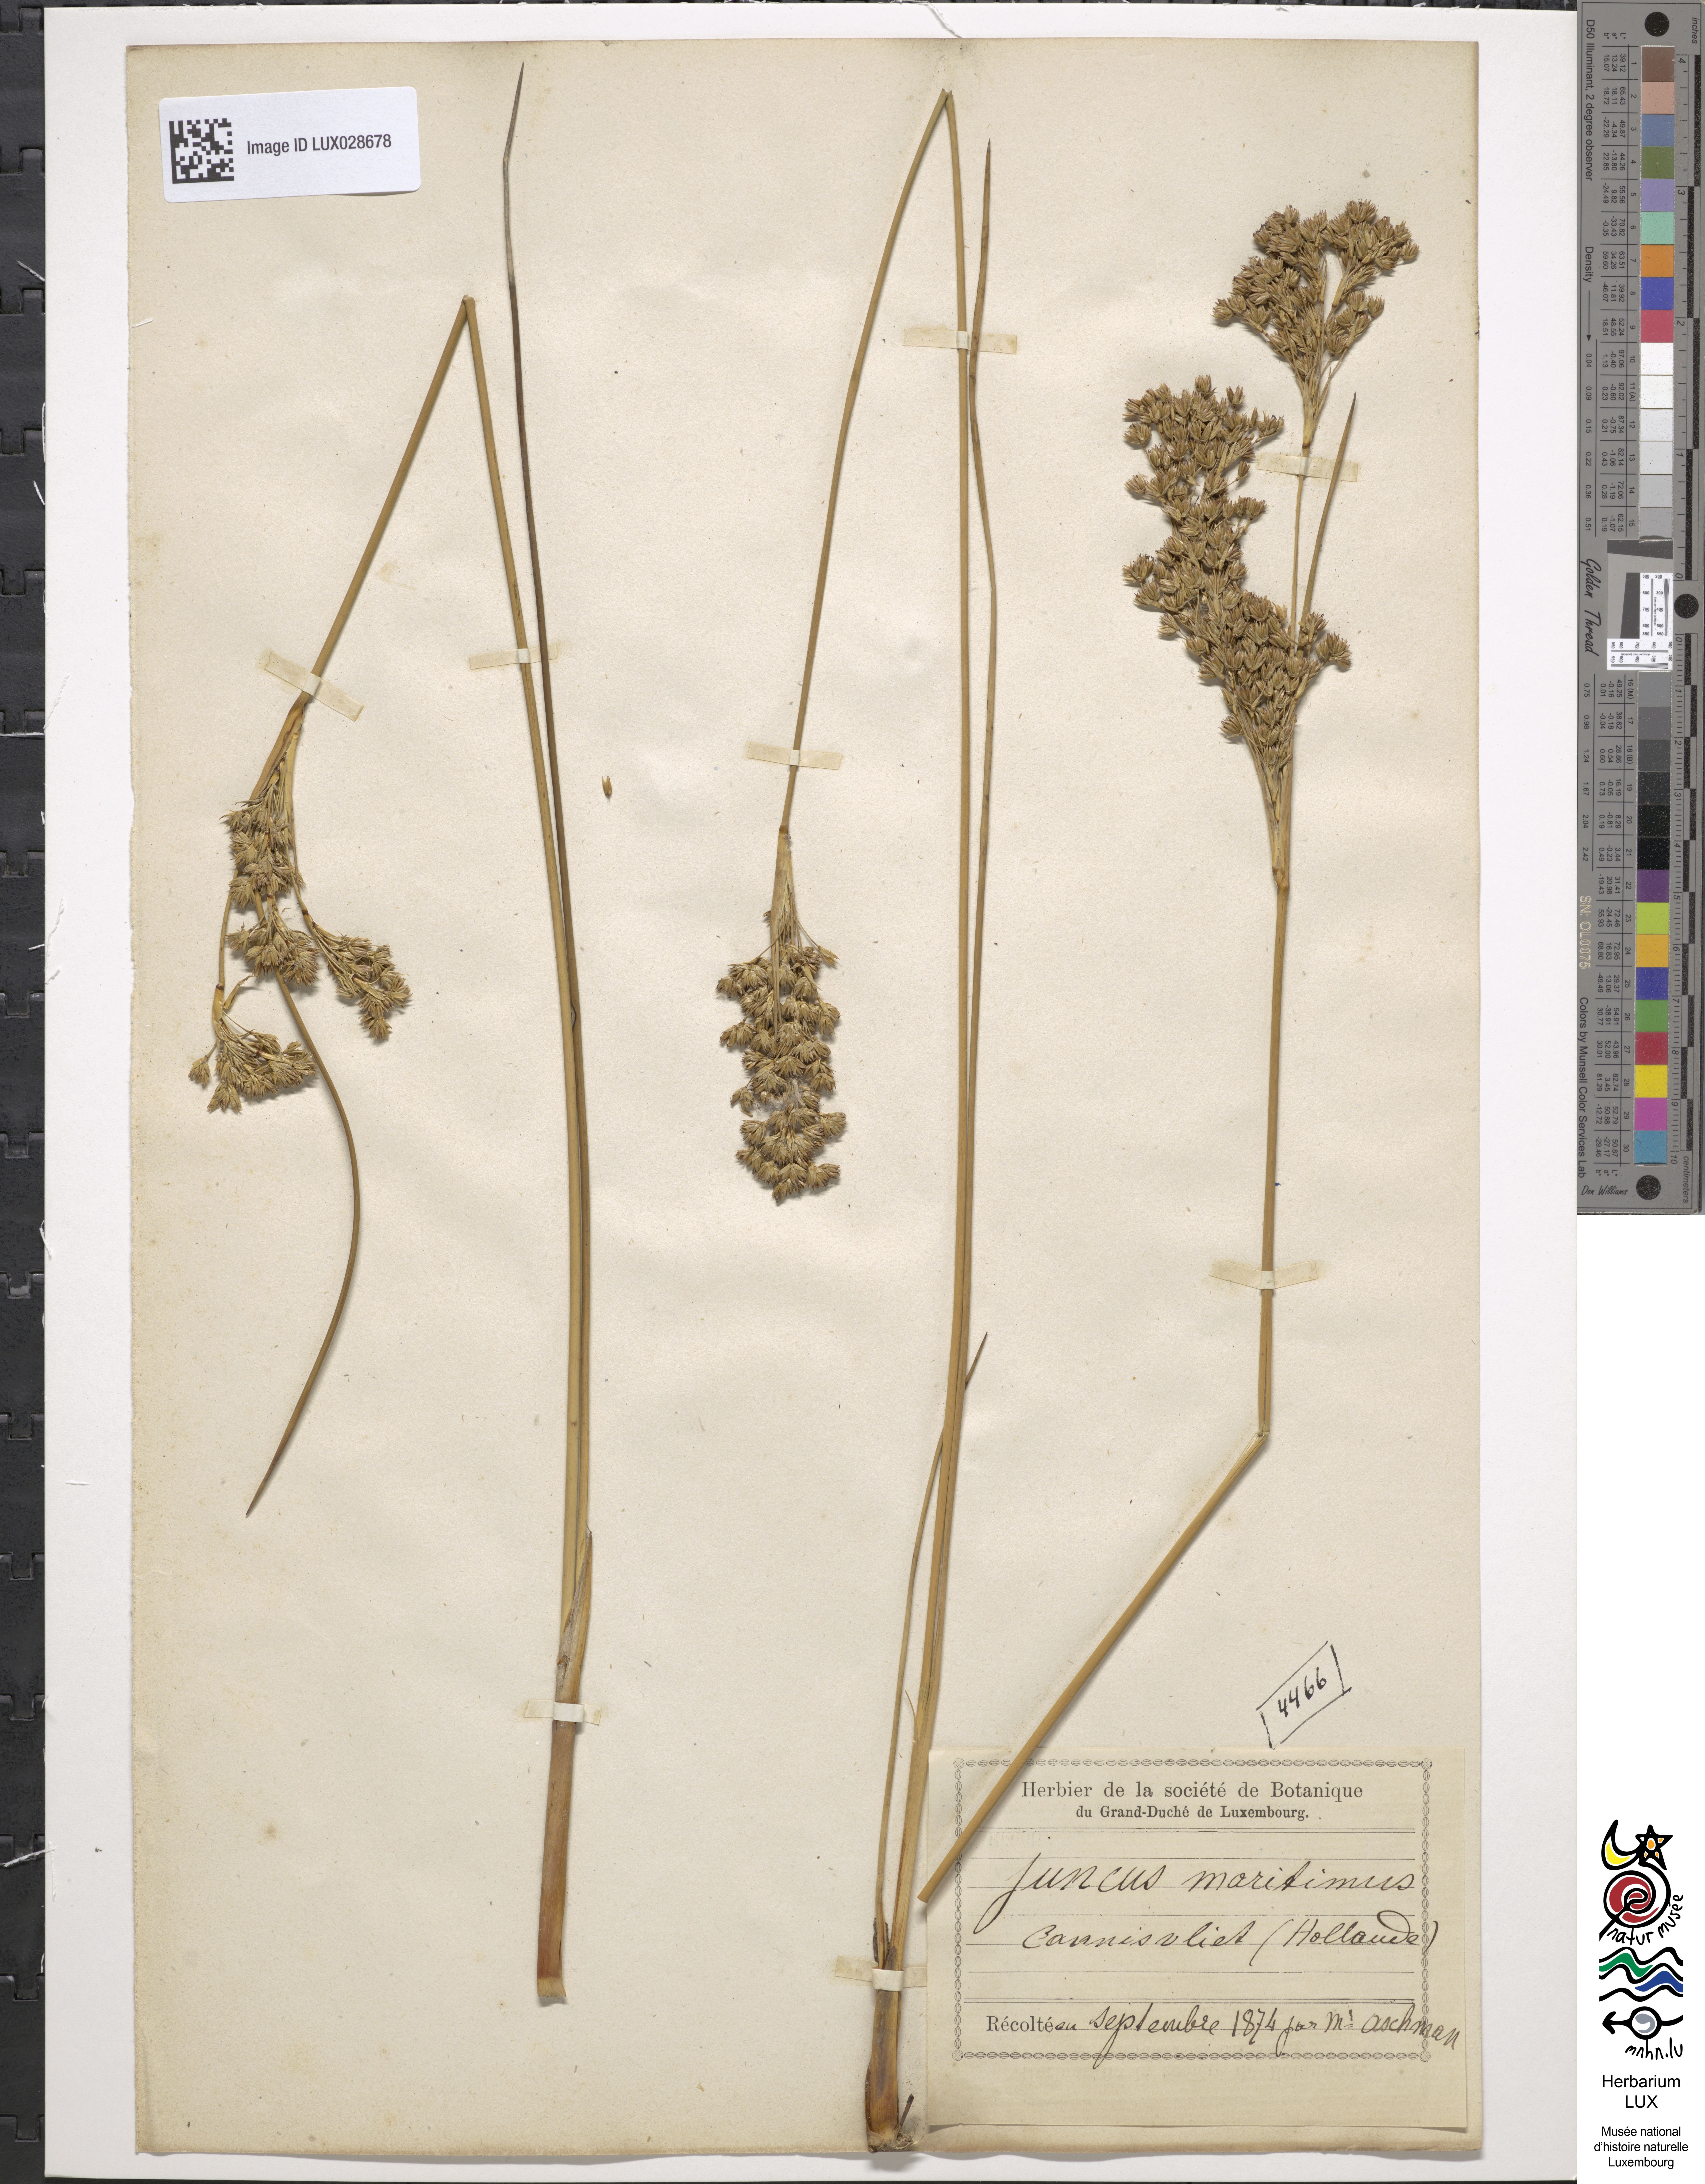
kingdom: Plantae
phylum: Tracheophyta
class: Liliopsida
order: Poales
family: Juncaceae
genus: Juncus
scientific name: Juncus maritimus
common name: Sea rush
